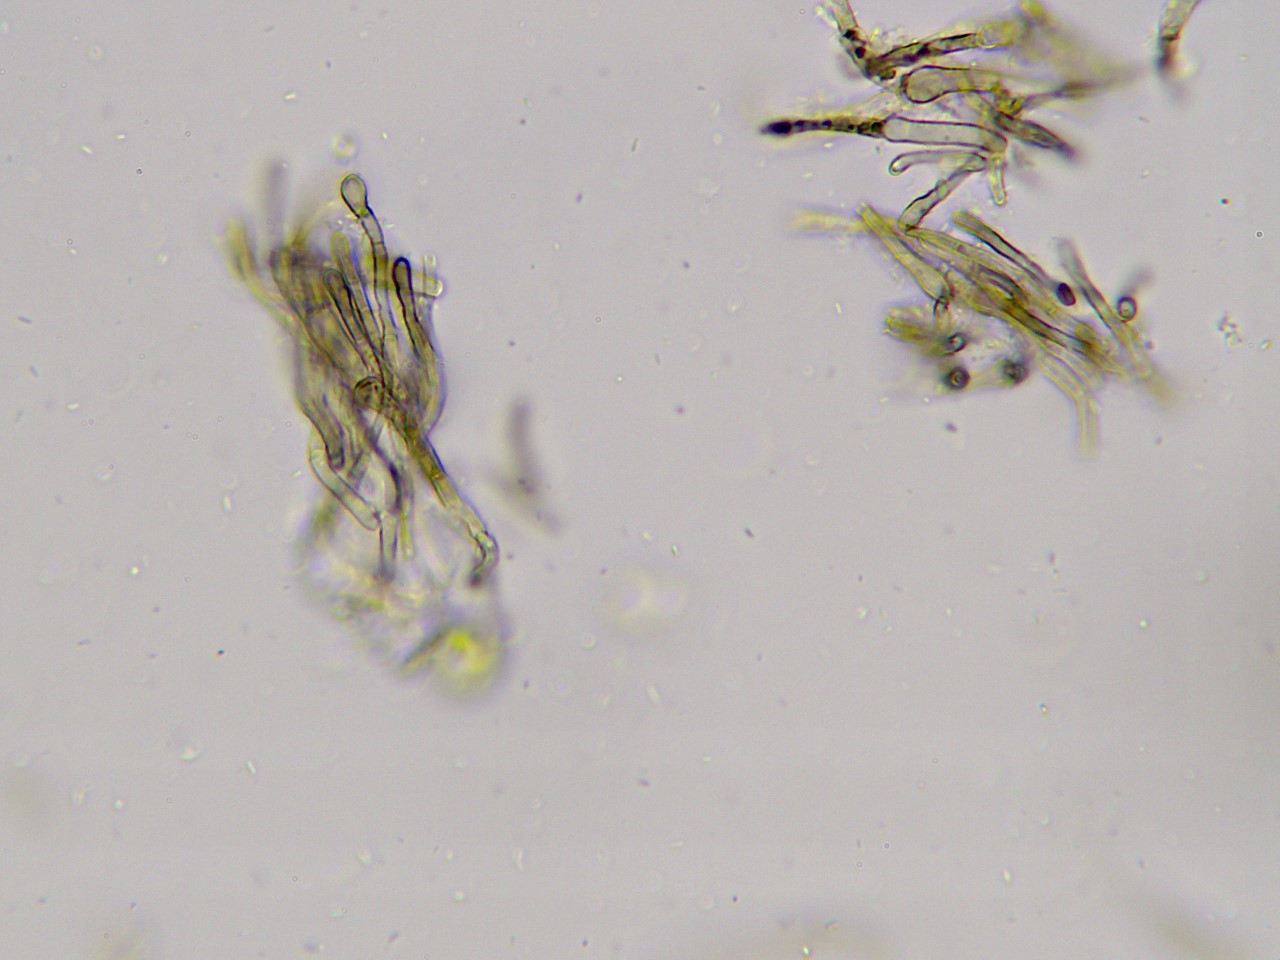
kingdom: Fungi
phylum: Ascomycota
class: Geoglossomycetes
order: Geoglossales
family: Geoglossaceae
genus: Geoglossum
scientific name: Geoglossum
